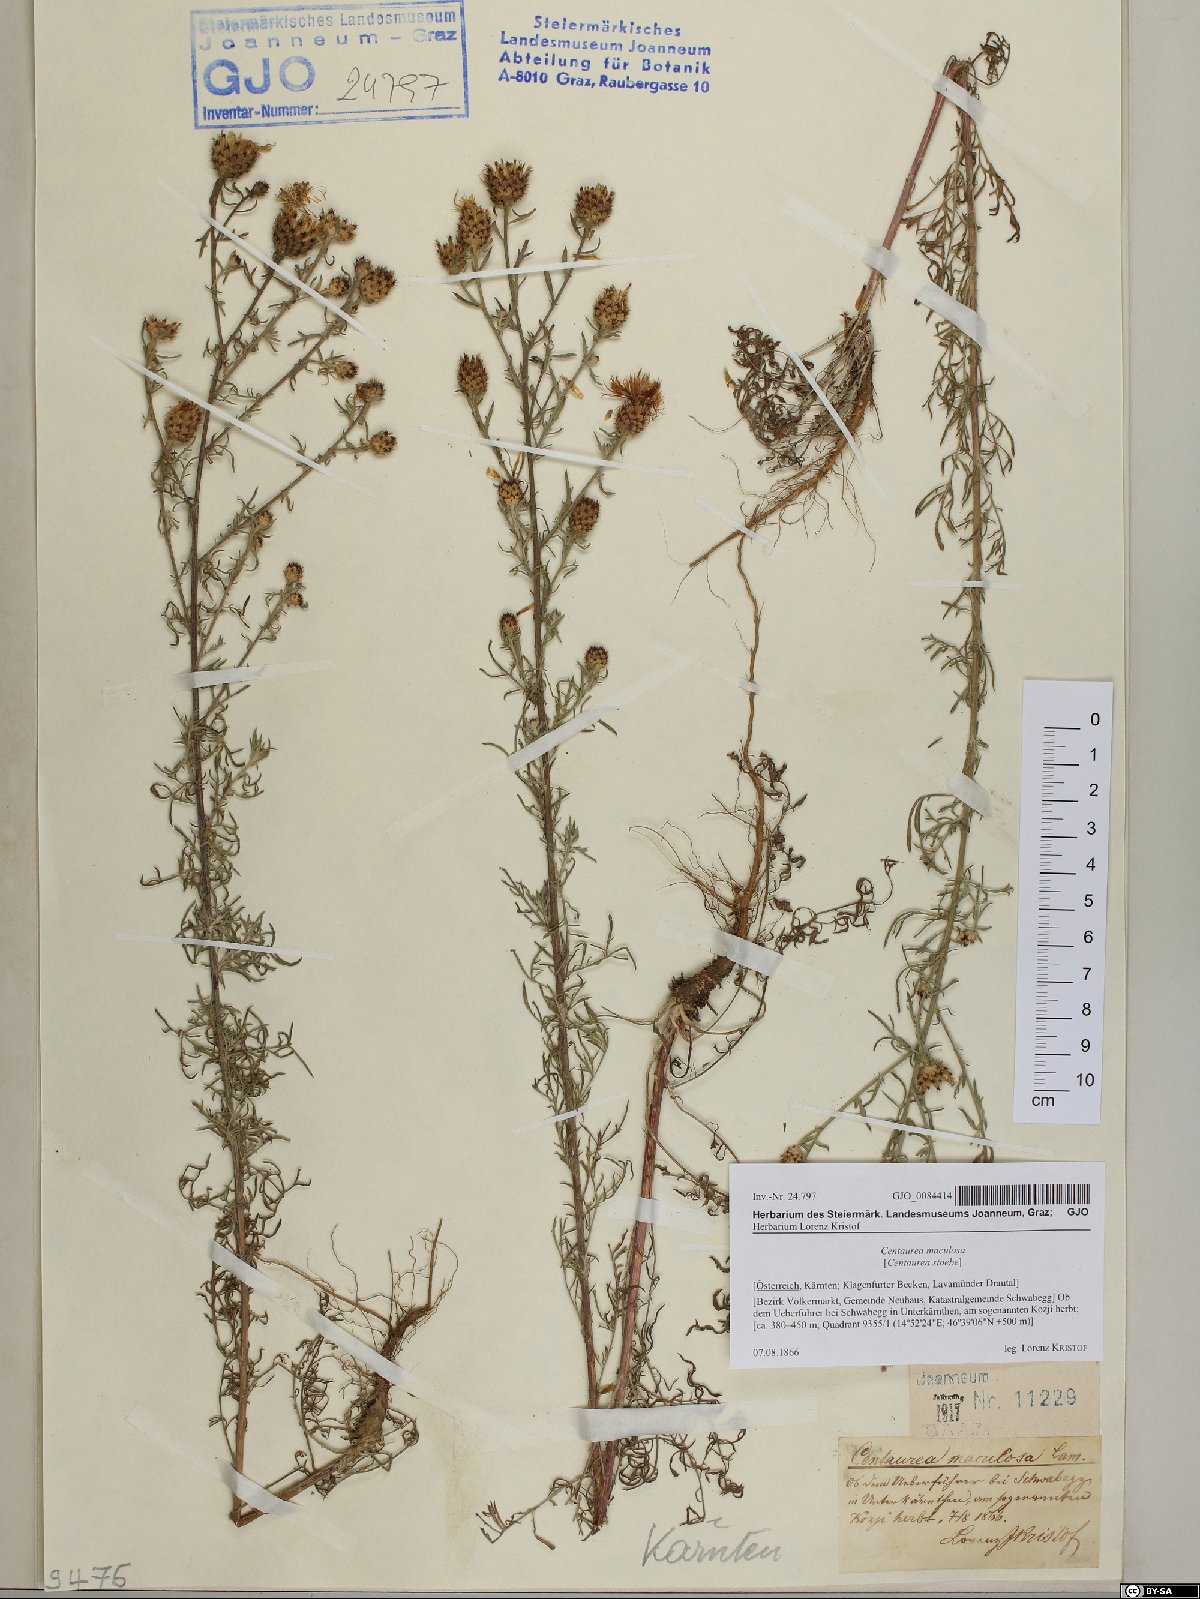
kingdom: Plantae
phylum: Tracheophyta
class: Magnoliopsida
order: Asterales
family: Asteraceae
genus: Centaurea
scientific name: Centaurea stoebe
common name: Spotted knapweed
